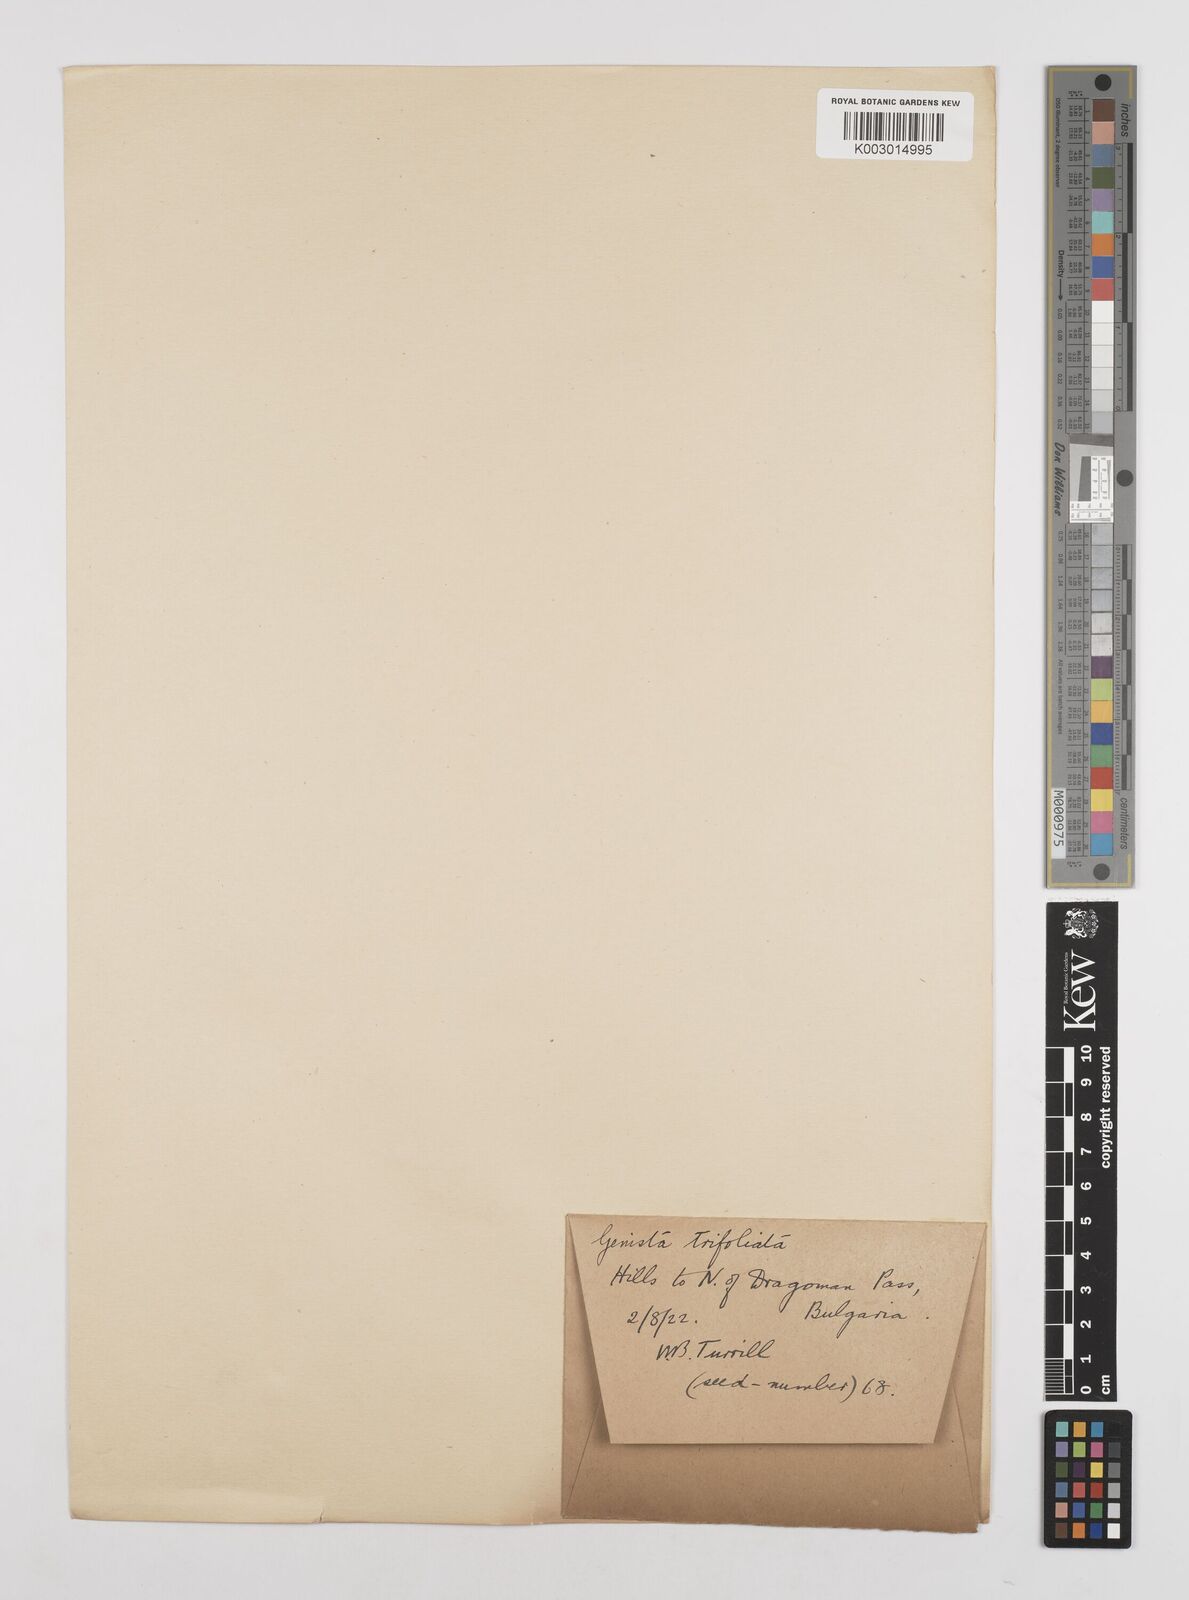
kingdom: Plantae
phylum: Tracheophyta
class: Magnoliopsida
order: Fabales
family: Fabaceae
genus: Genista
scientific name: Genista sessilifolia
